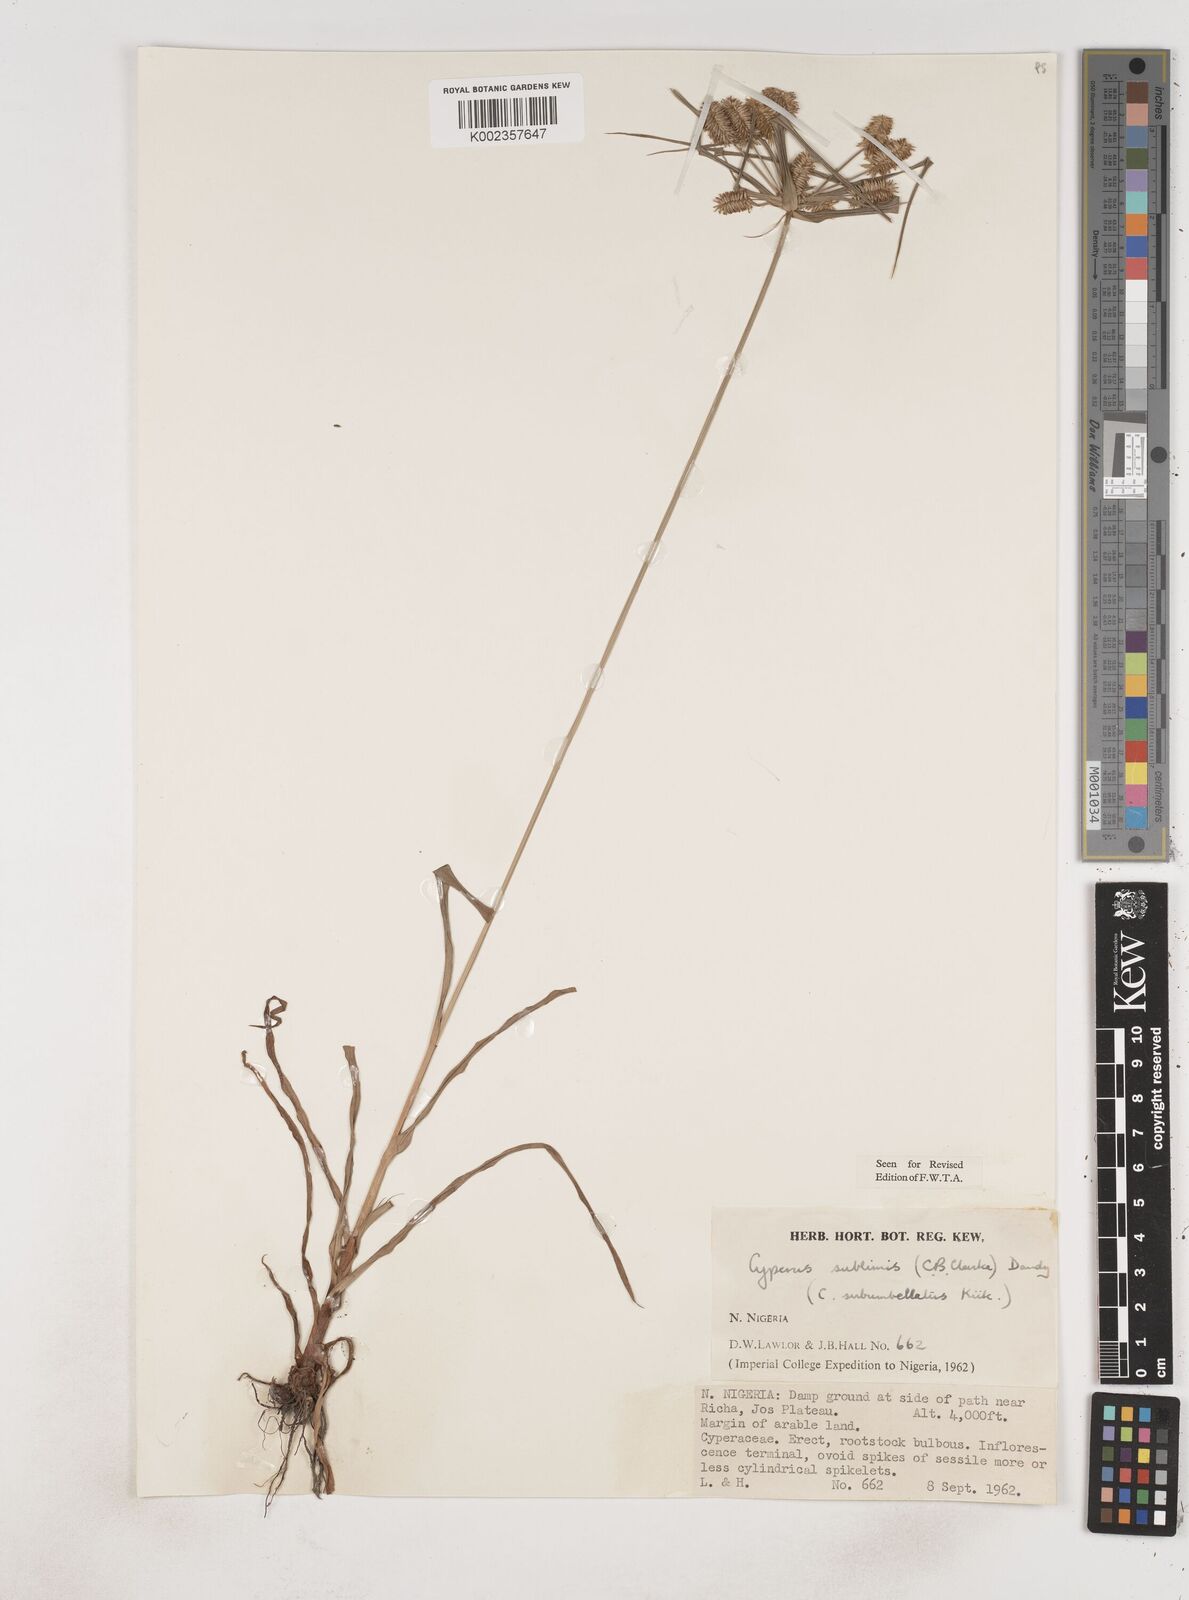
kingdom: Plantae
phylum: Tracheophyta
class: Liliopsida
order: Poales
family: Cyperaceae
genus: Cyperus
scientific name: Cyperus cyperoides
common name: Pacific island flat sedge
